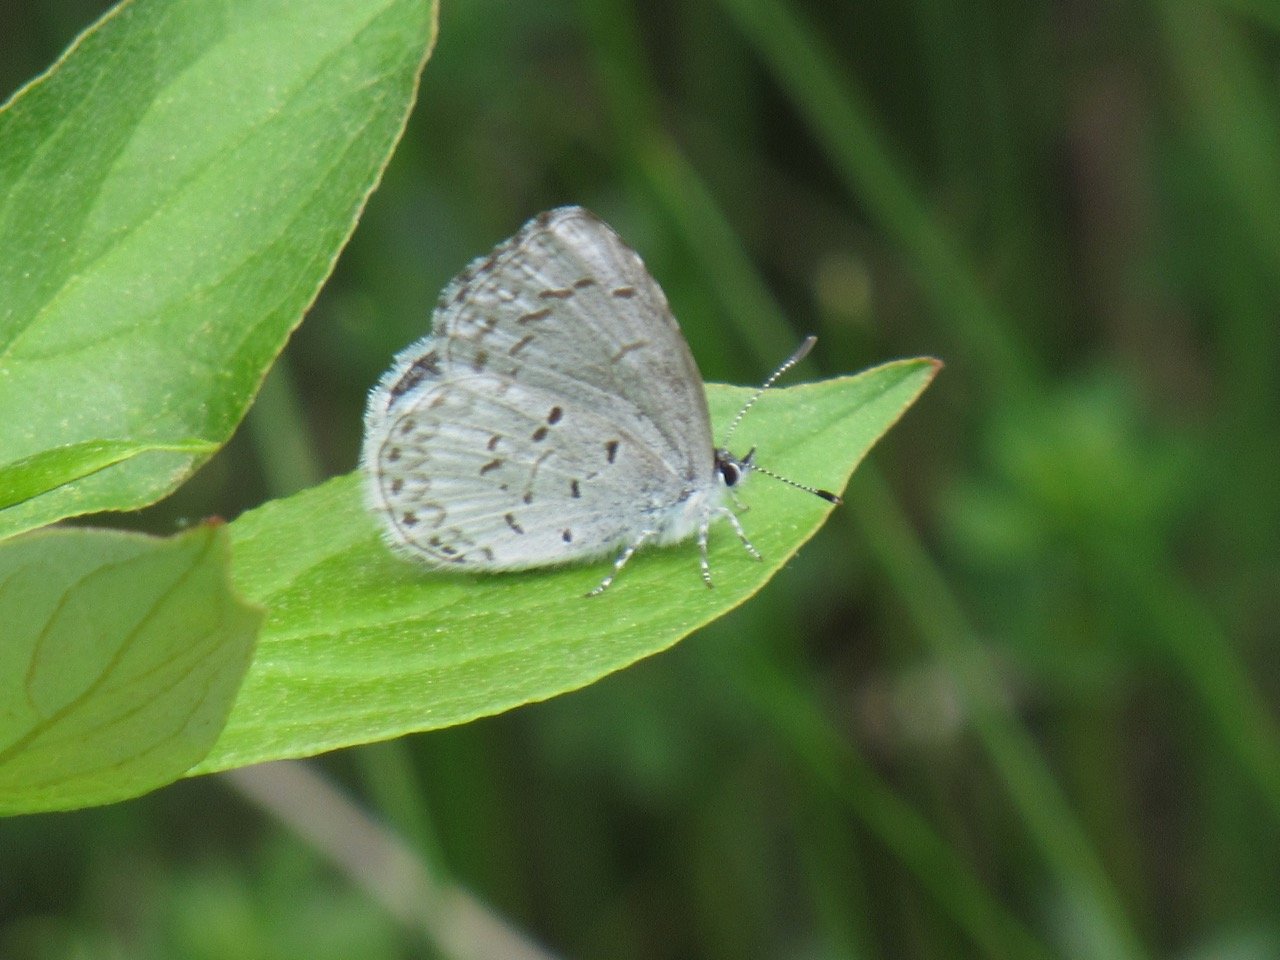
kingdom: Animalia
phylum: Arthropoda
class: Insecta
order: Lepidoptera
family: Lycaenidae
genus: Celastrina
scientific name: Celastrina lucia
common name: Northern Spring Azure
